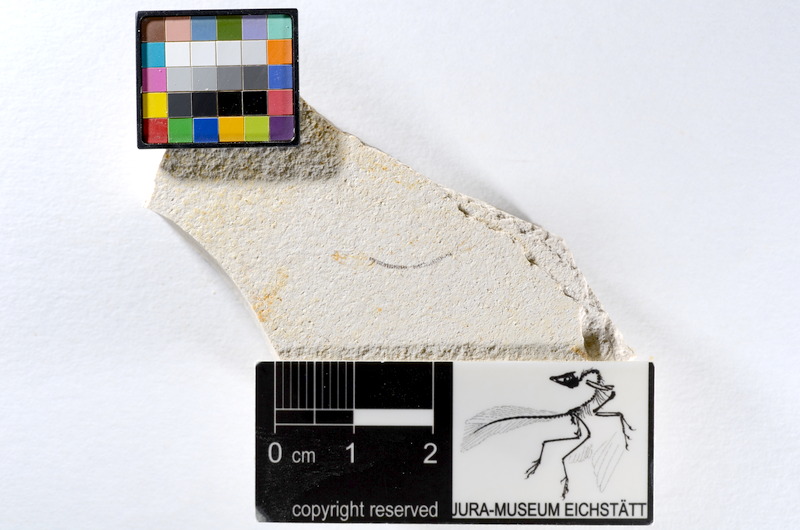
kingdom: Animalia
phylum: Chordata
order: Salmoniformes
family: Orthogonikleithridae
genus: Orthogonikleithrus
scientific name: Orthogonikleithrus hoelli
